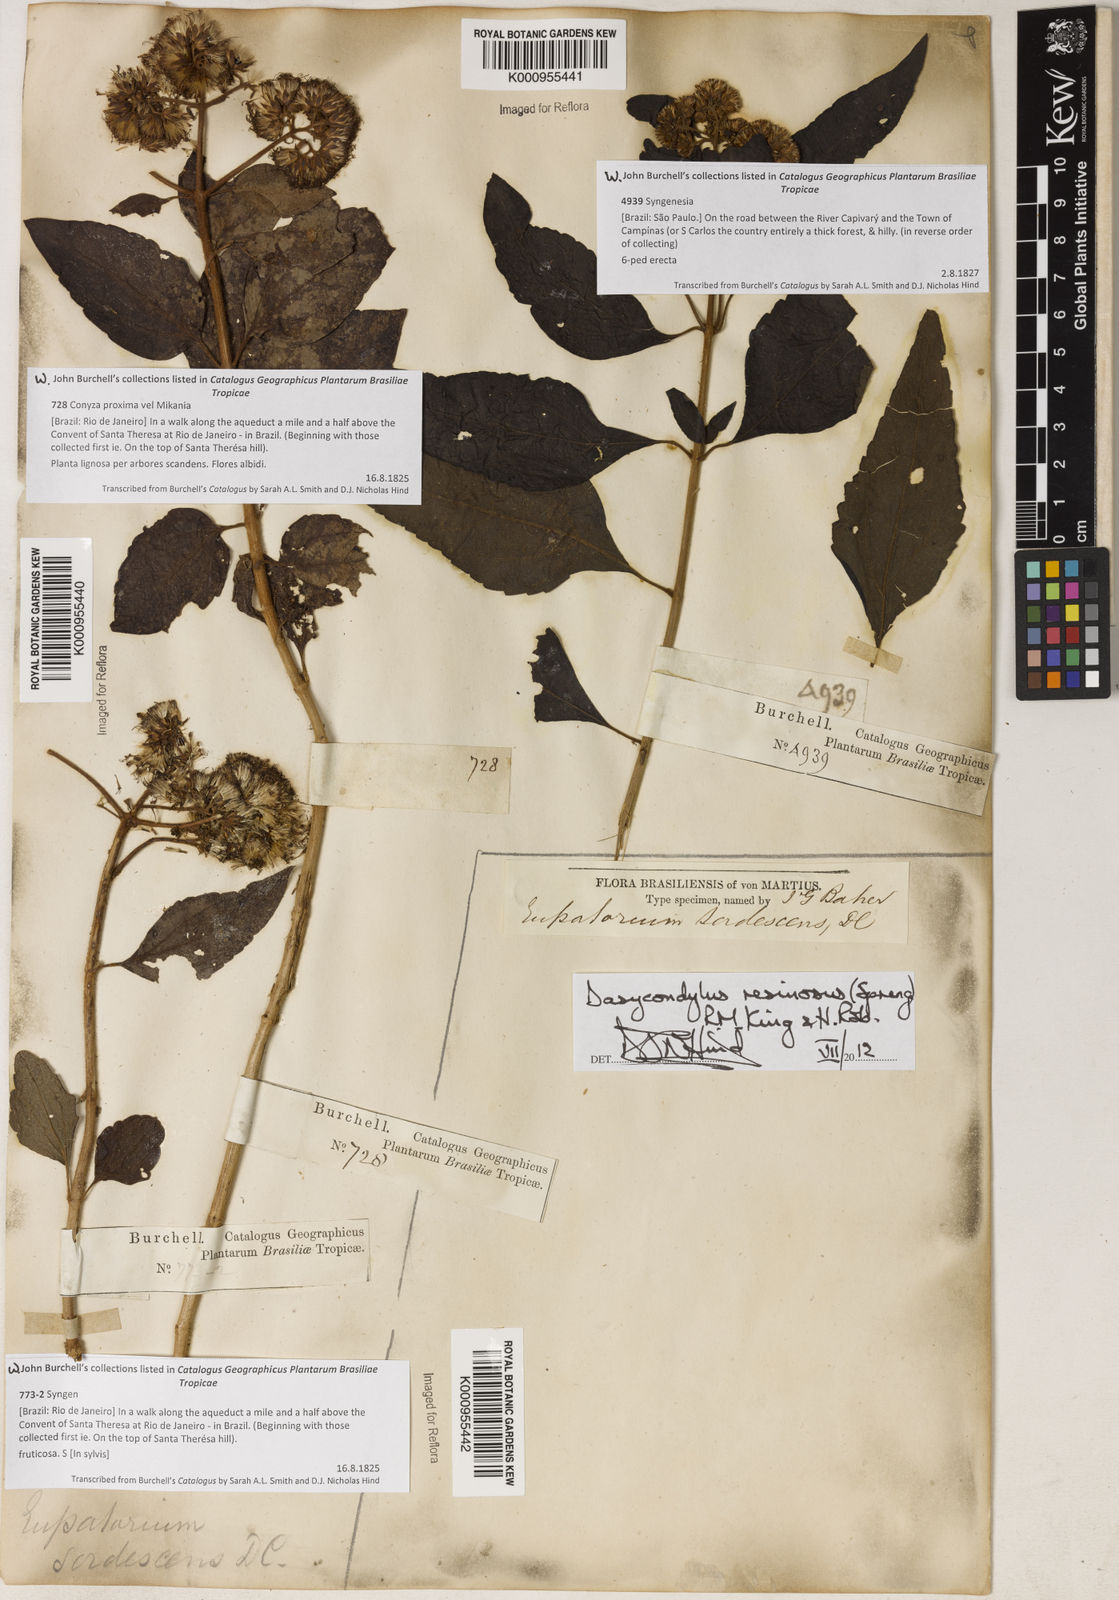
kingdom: Plantae
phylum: Tracheophyta
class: Magnoliopsida
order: Asterales
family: Asteraceae
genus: Dasycondylus
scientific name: Dasycondylus resinosus
